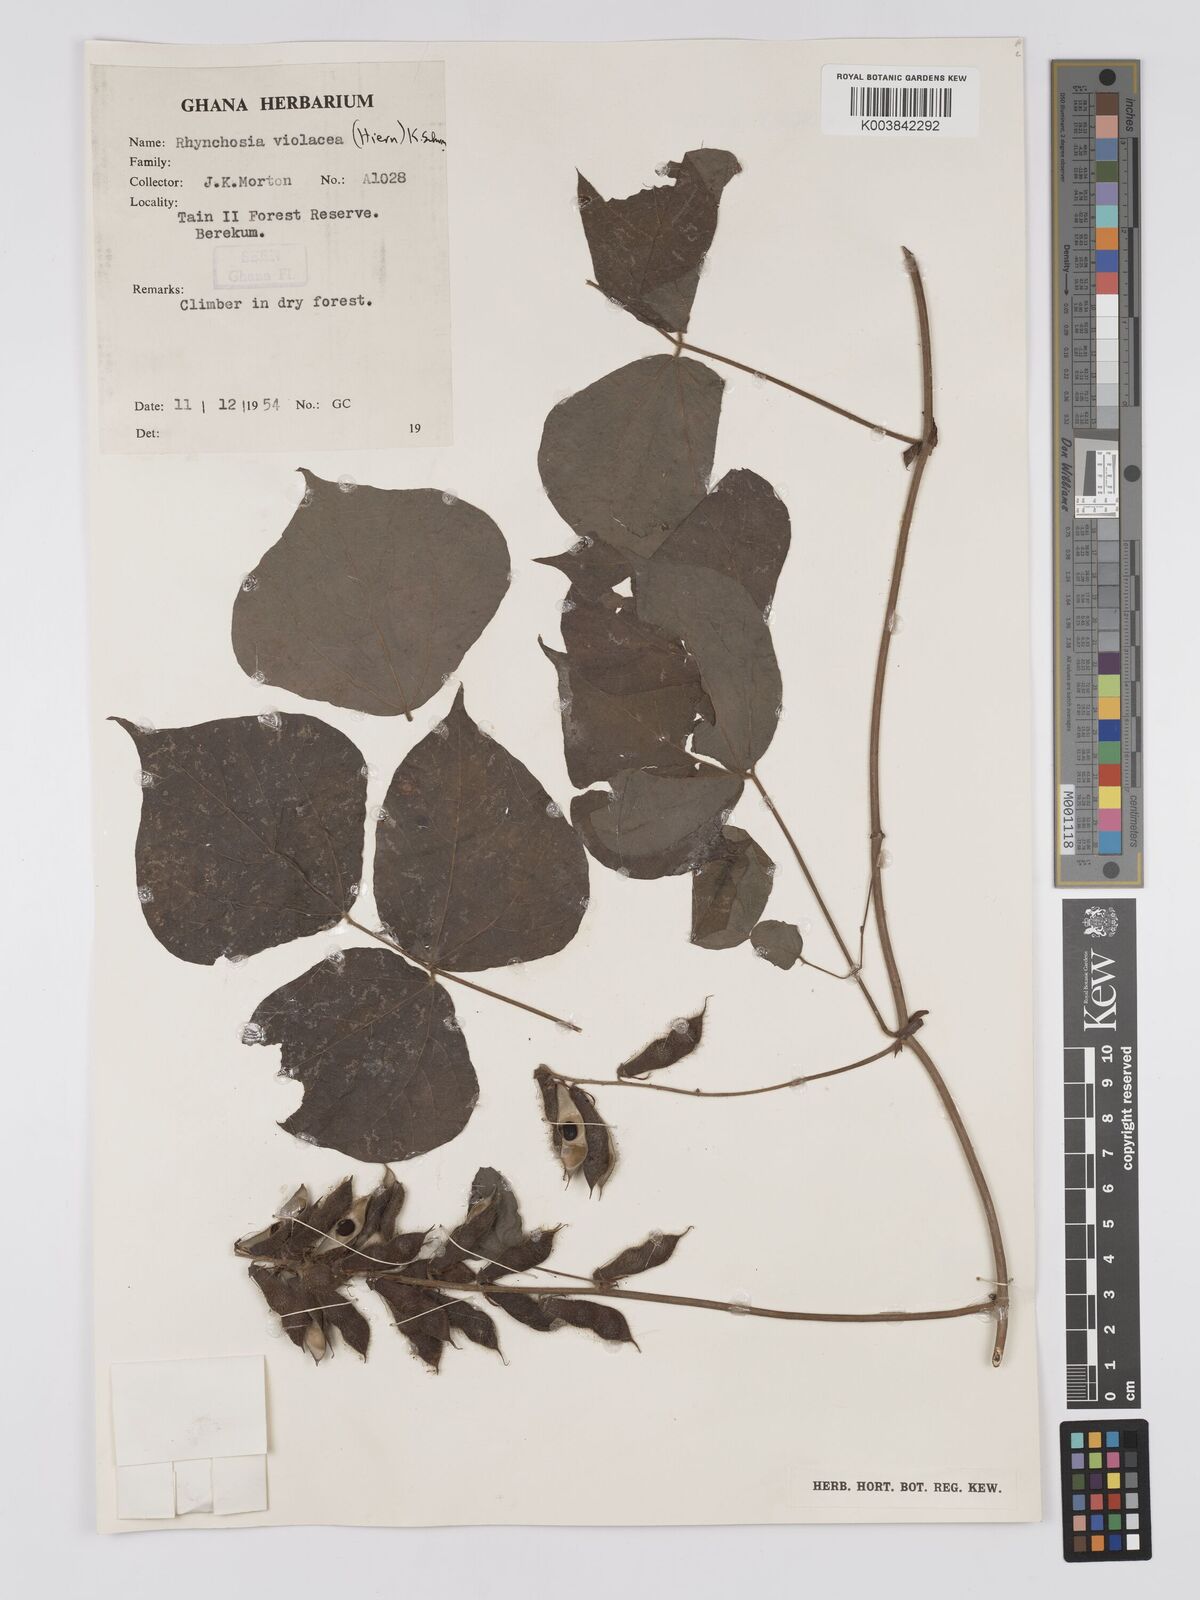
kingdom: Plantae
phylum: Tracheophyta
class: Magnoliopsida
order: Fabales
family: Fabaceae
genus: Rhynchosia
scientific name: Rhynchosia viscosa
